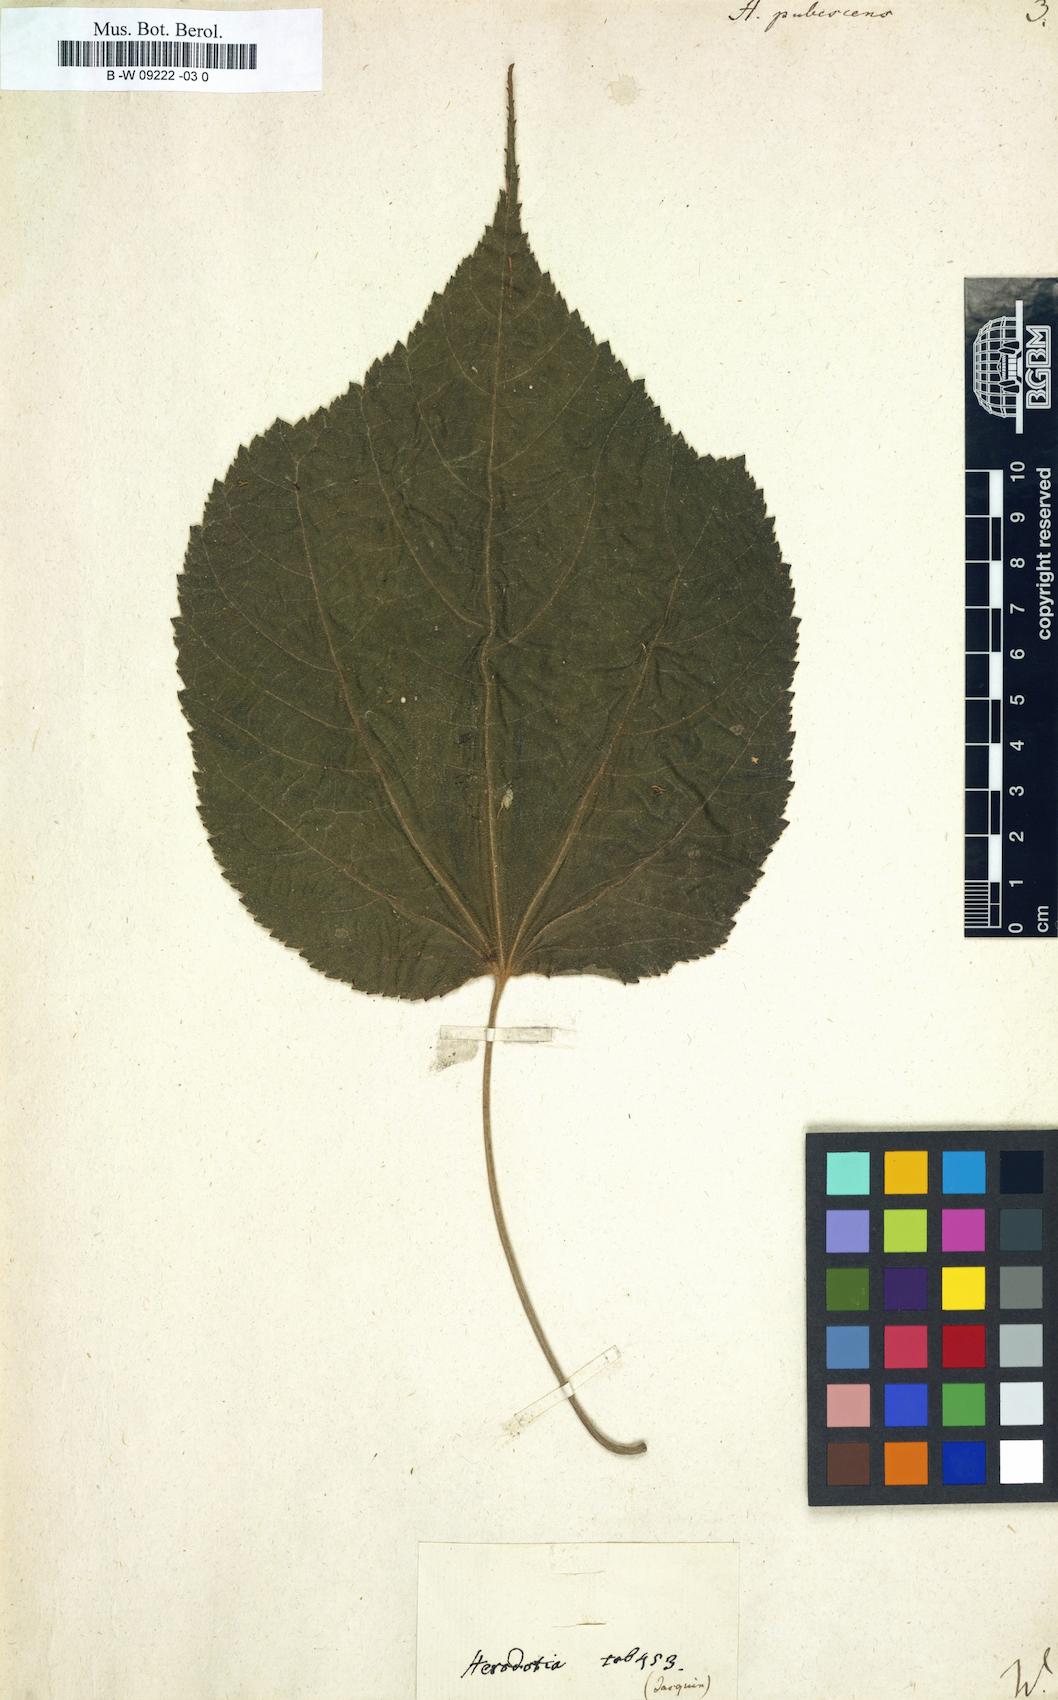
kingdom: Plantae
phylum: Tracheophyta
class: Magnoliopsida
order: Malvales
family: Malvaceae
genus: Heliocarpus
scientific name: Heliocarpus
